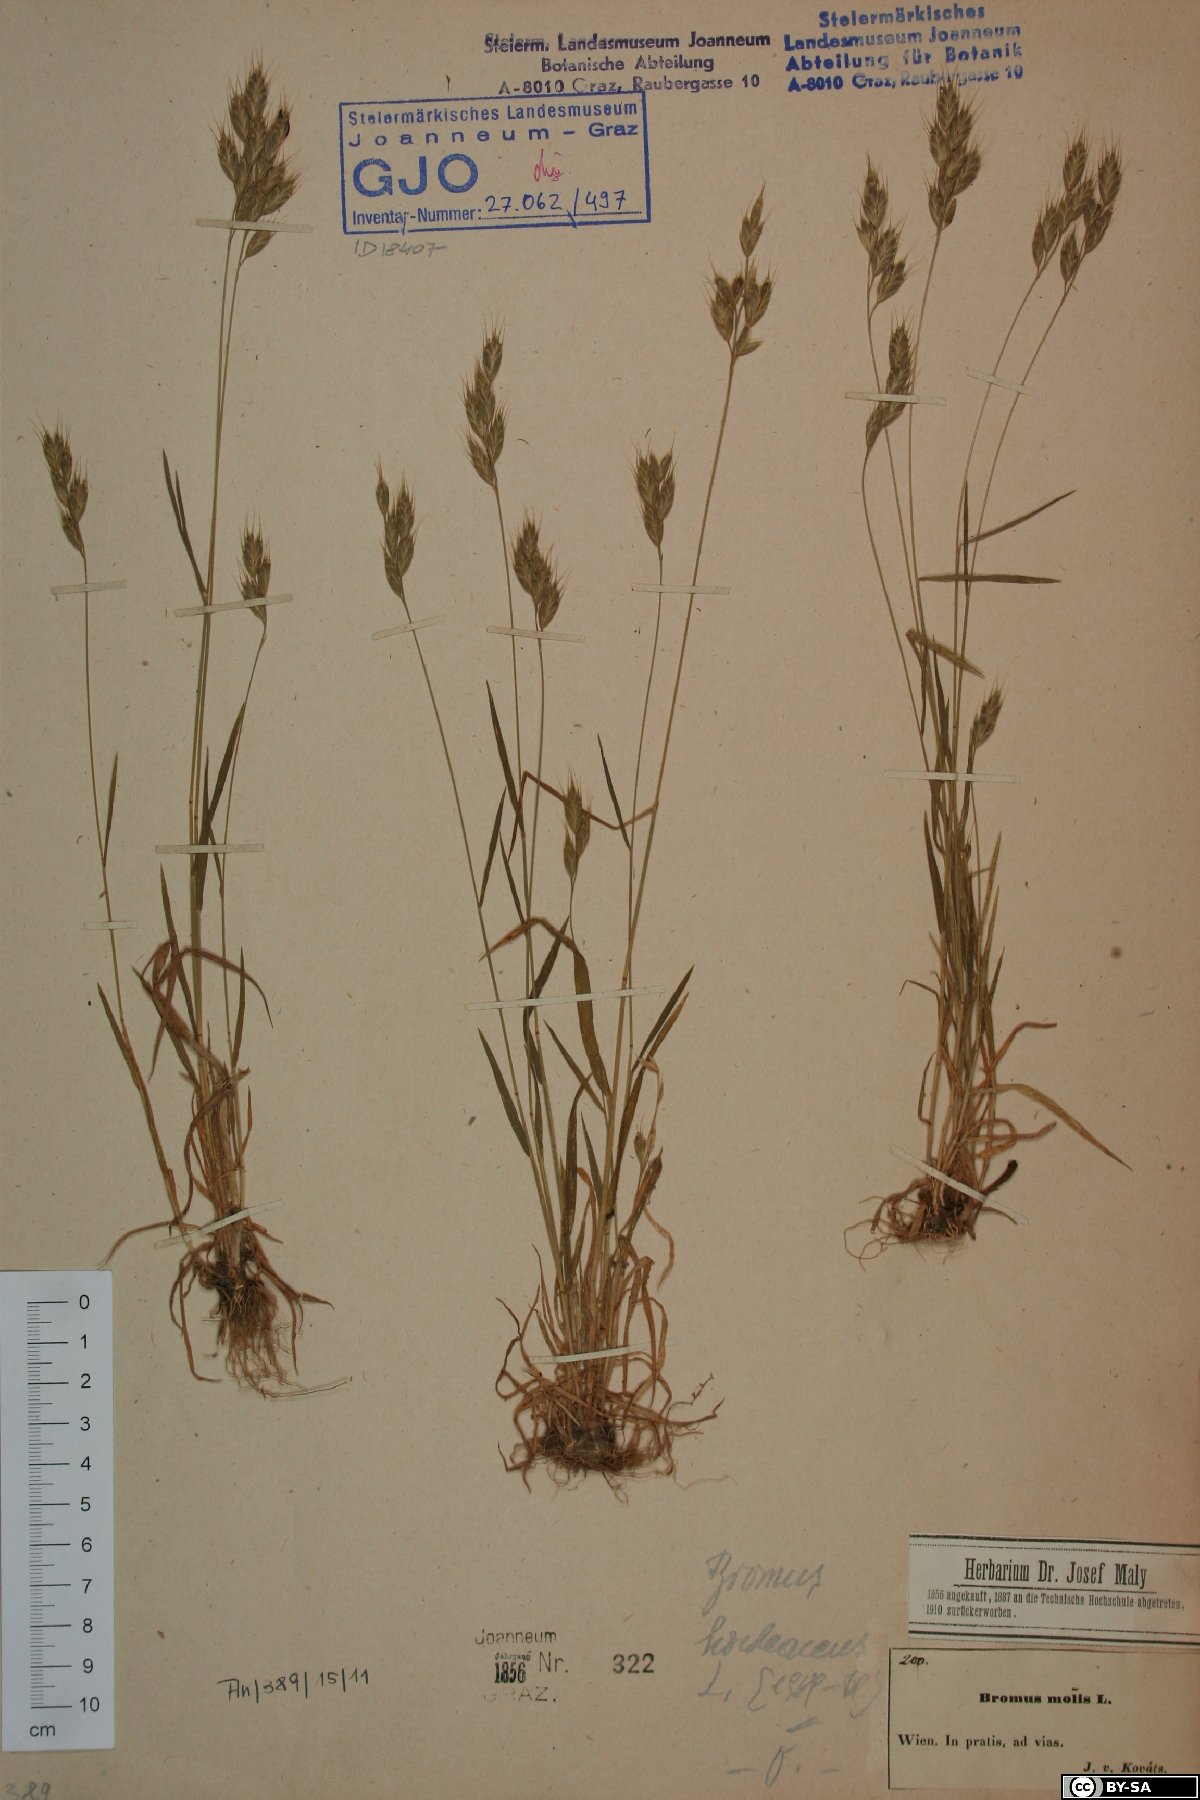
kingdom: Plantae
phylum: Tracheophyta
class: Liliopsida
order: Poales
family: Poaceae
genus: Bromus
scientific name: Bromus hordeaceus
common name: Soft brome
